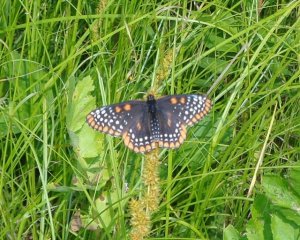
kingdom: Animalia
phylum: Arthropoda
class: Insecta
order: Lepidoptera
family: Nymphalidae
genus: Euphydryas
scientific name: Euphydryas phaeton
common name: Baltimore Checkerspot
